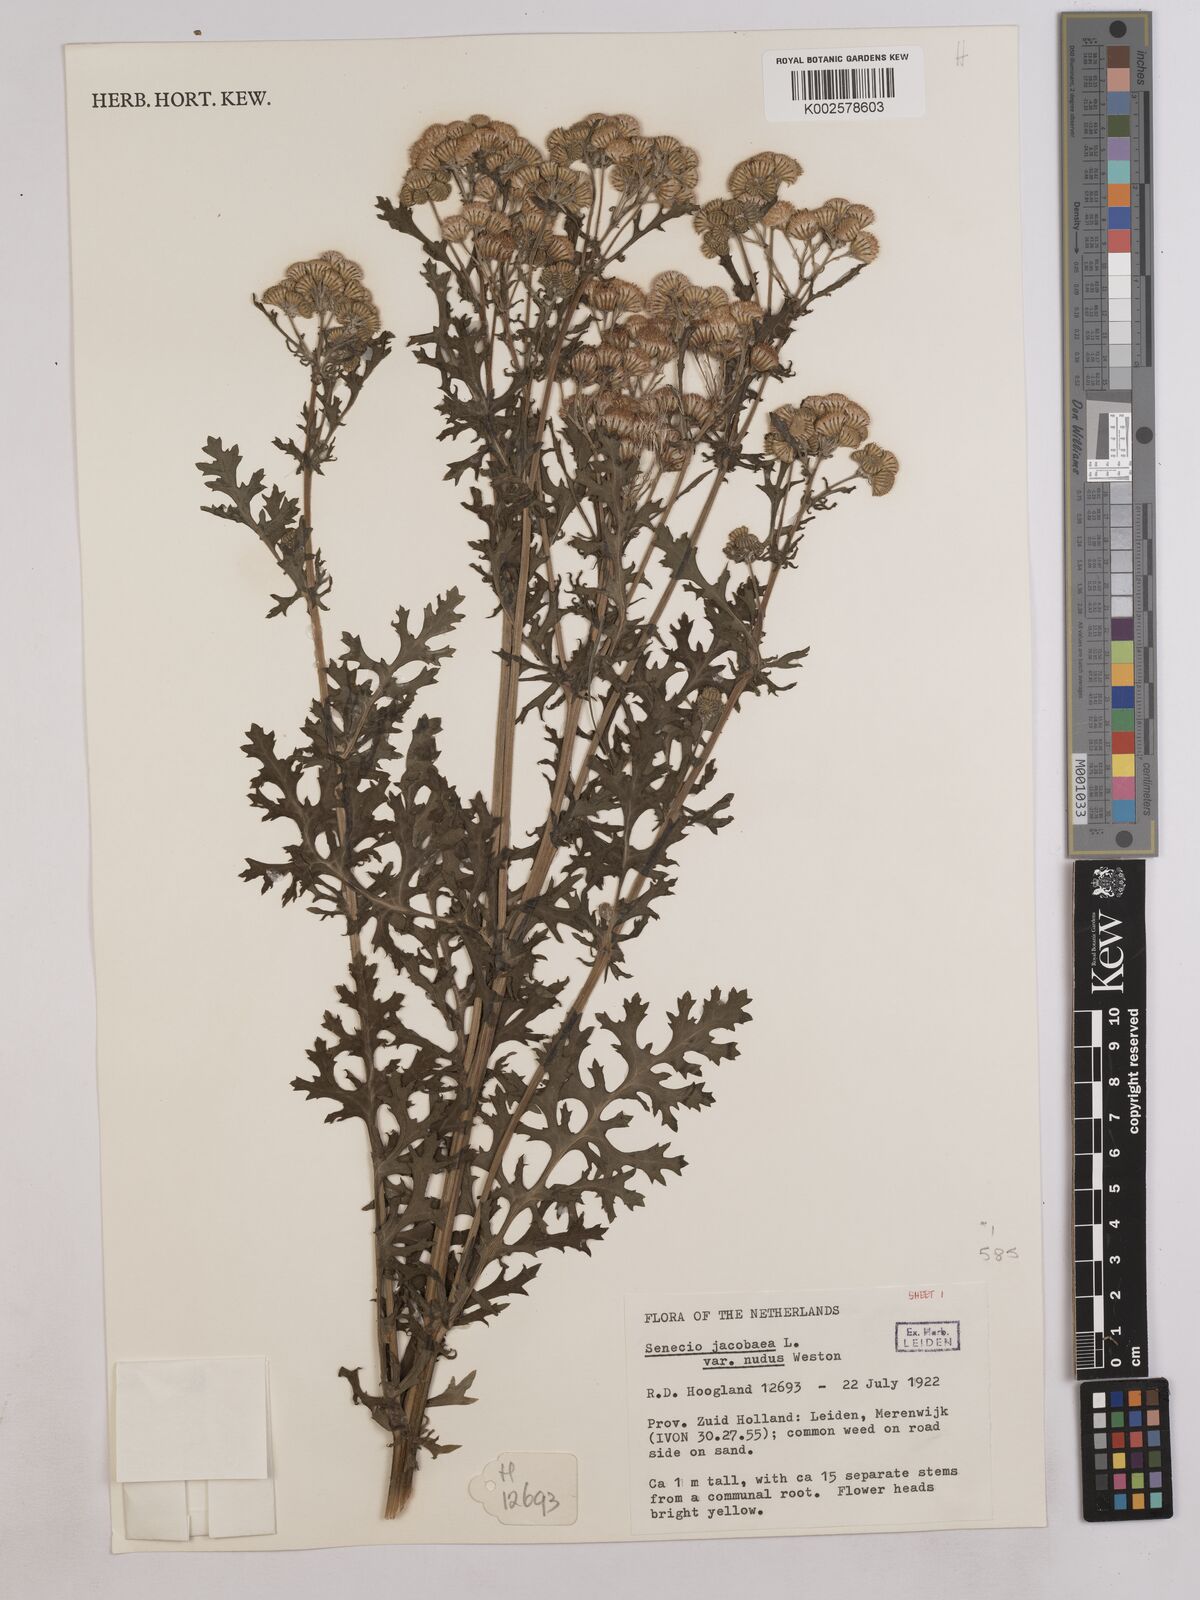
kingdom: Plantae
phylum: Tracheophyta
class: Magnoliopsida
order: Asterales
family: Asteraceae
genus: Jacobaea
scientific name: Jacobaea vulgaris
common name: Stinking willie
